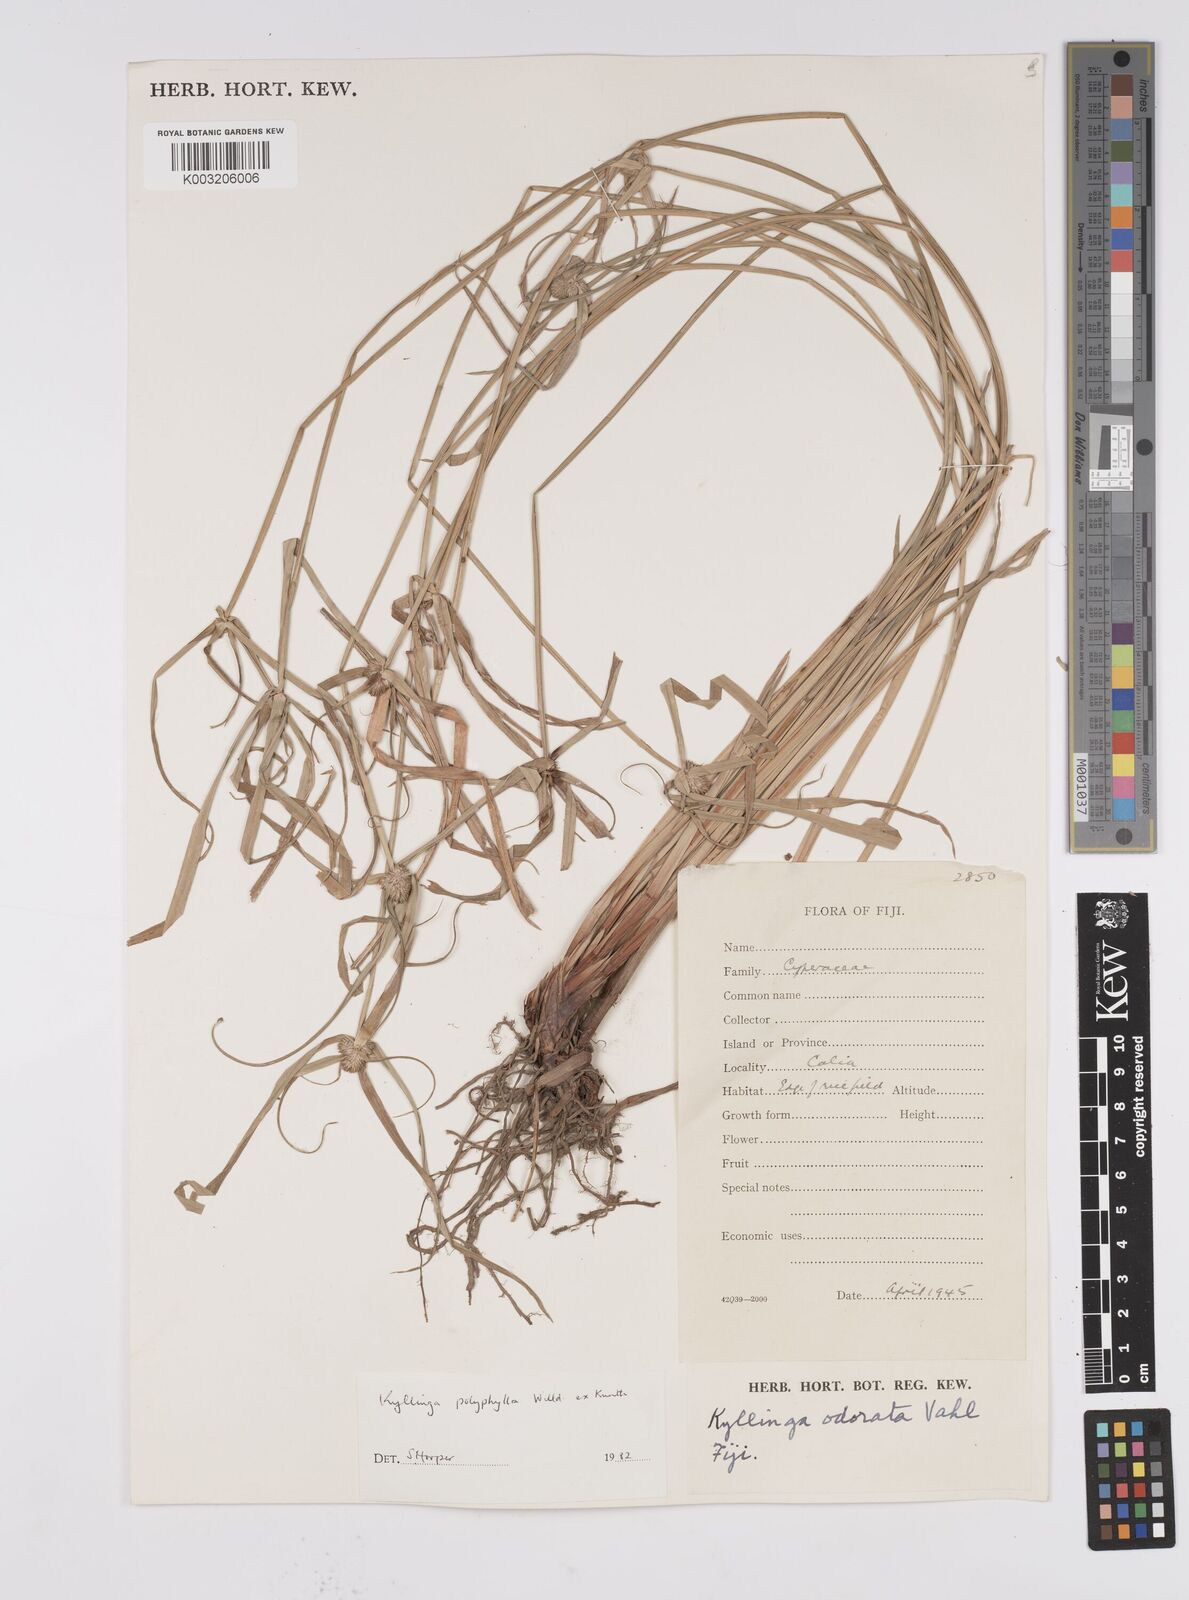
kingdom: Plantae
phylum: Tracheophyta
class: Liliopsida
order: Poales
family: Cyperaceae
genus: Cyperus
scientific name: Cyperus bulbosus
